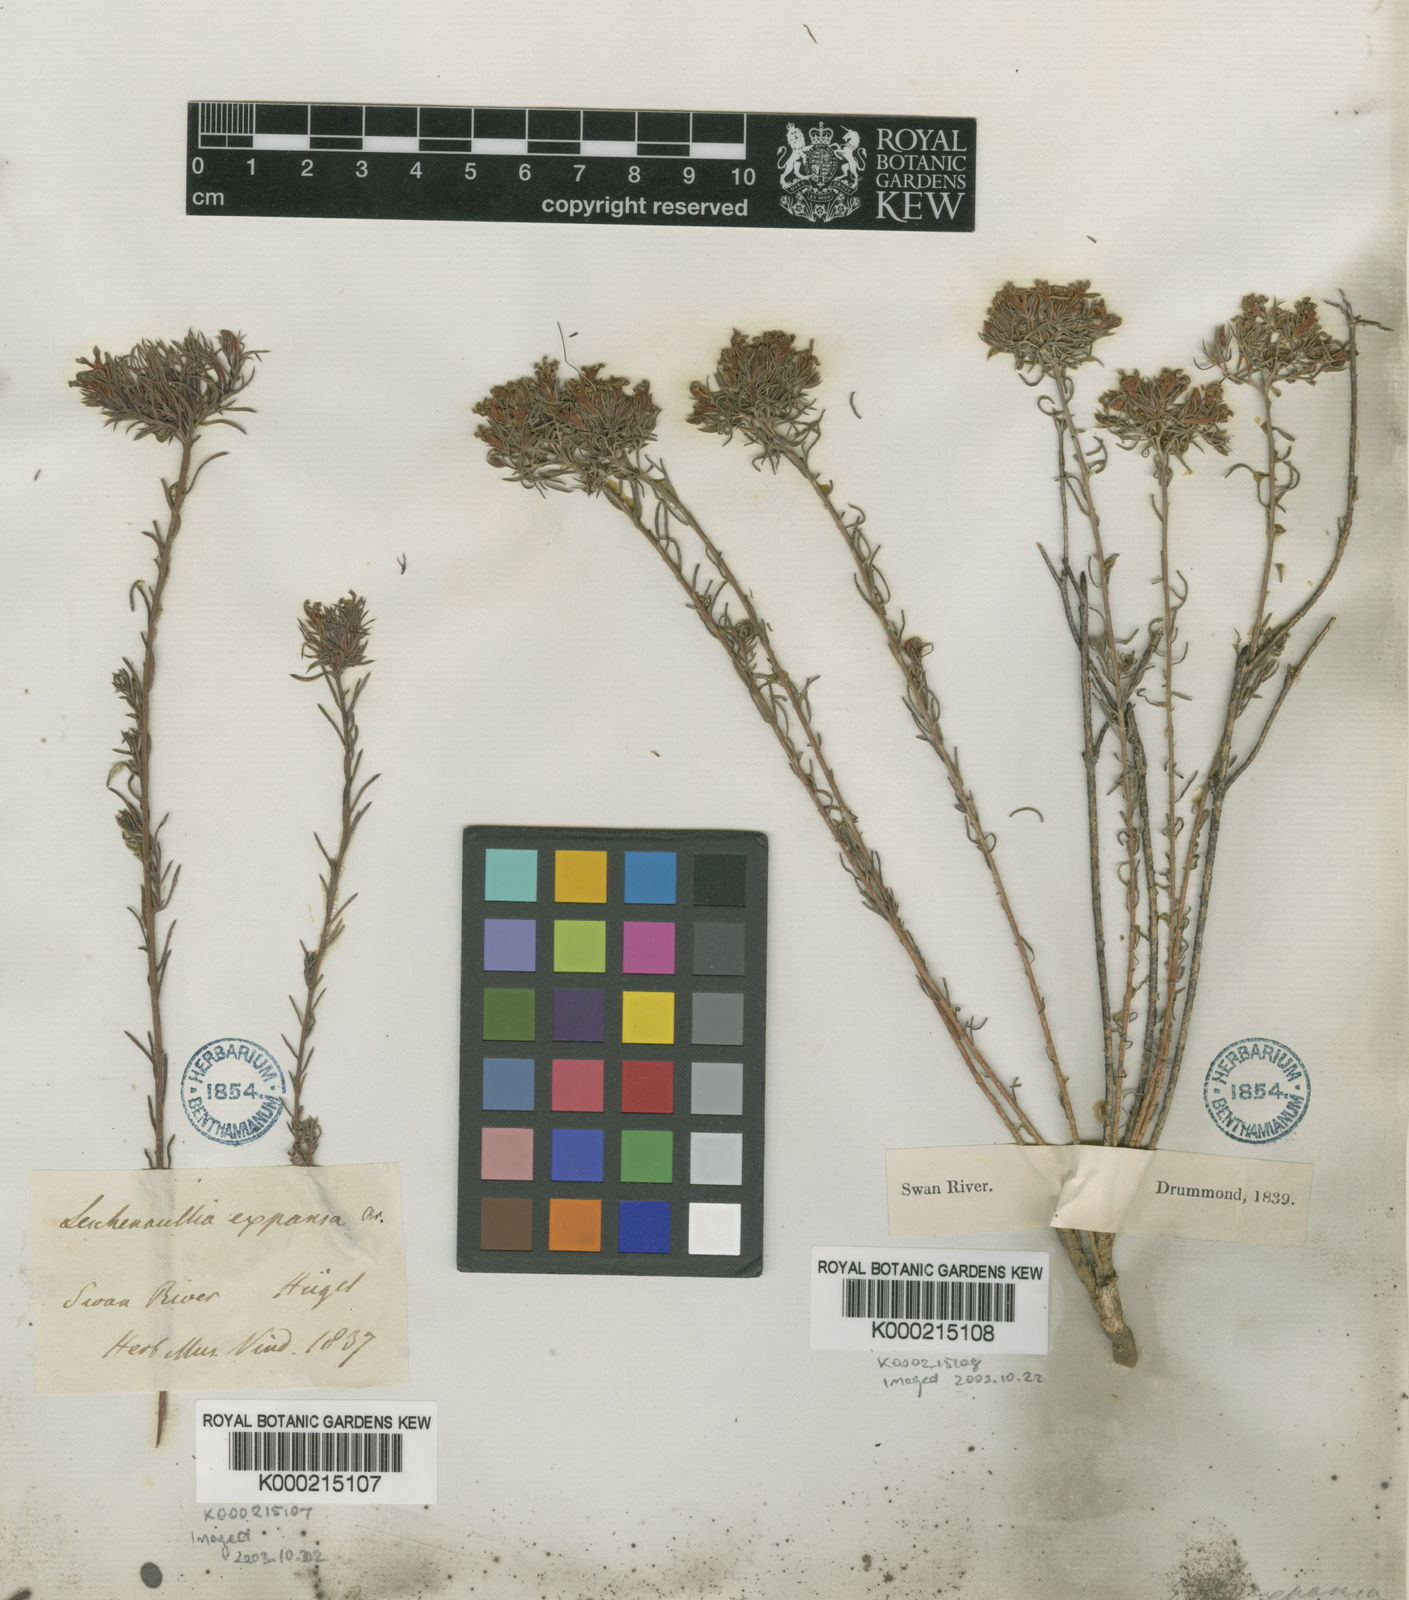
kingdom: Plantae
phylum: Tracheophyta
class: Magnoliopsida
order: Asterales
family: Goodeniaceae
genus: Leschenaultia
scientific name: Leschenaultia expansa
